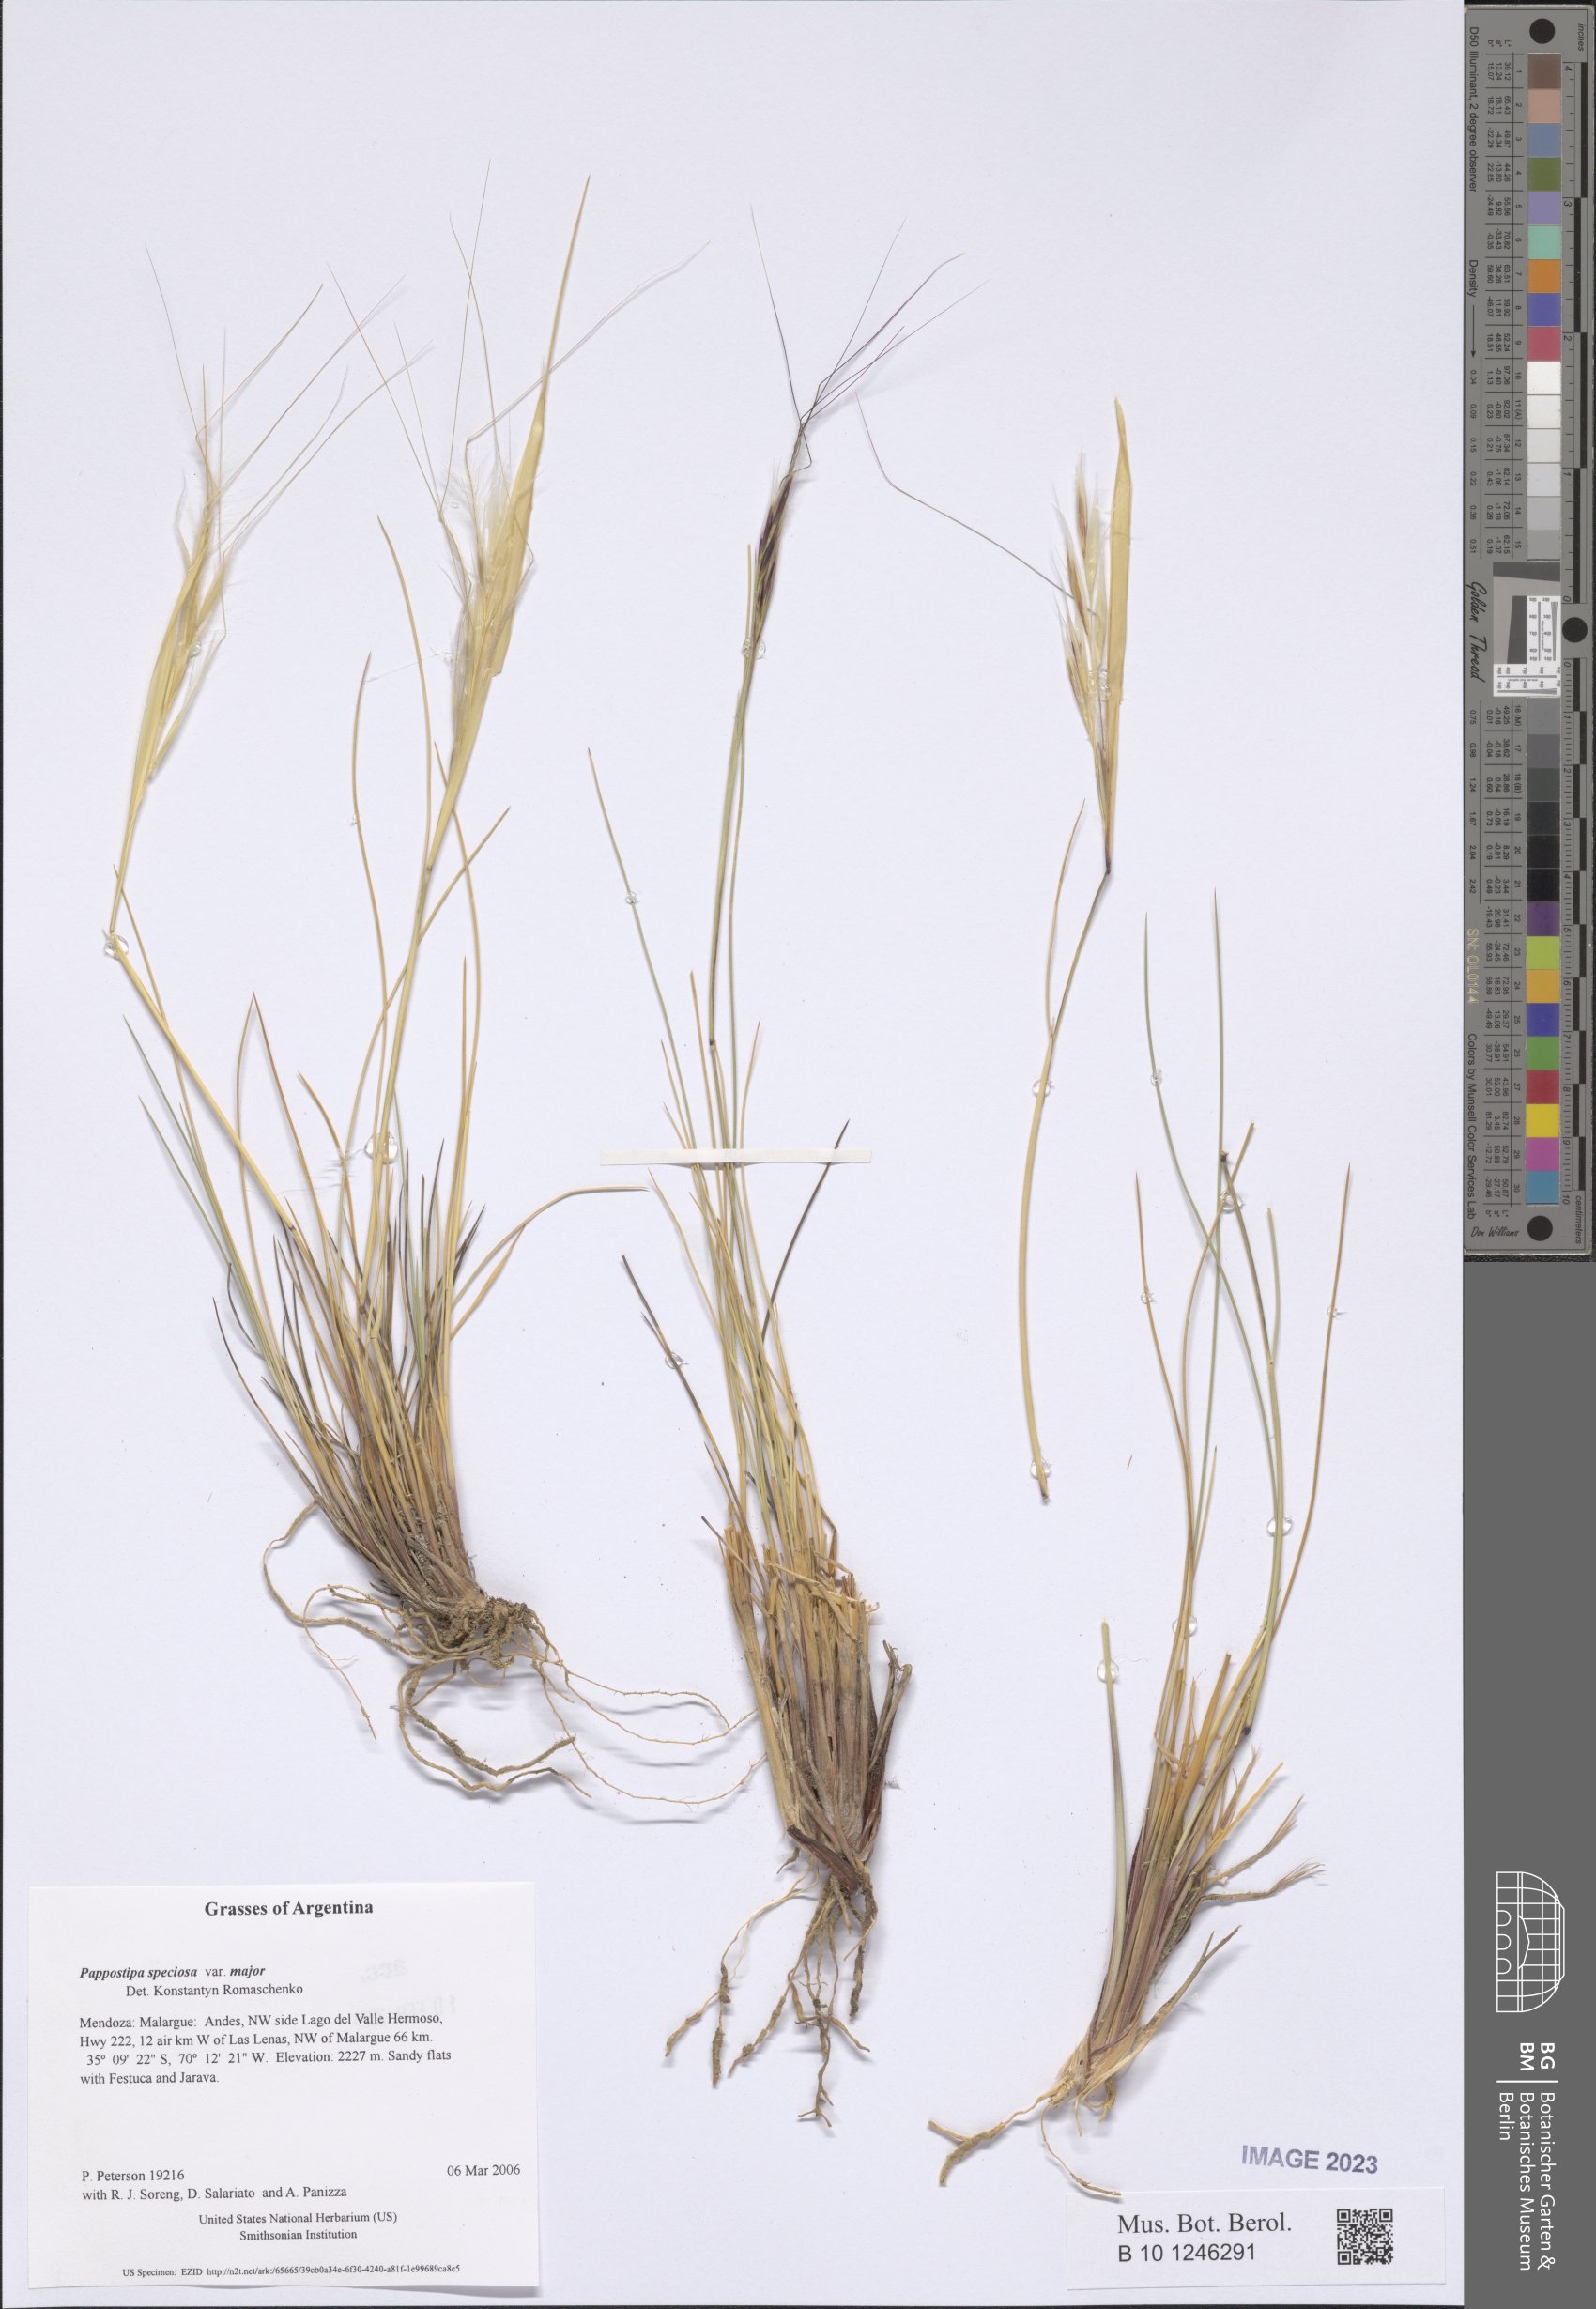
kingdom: Plantae
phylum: Tracheophyta
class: Liliopsida
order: Poales
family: Poaceae
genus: Pappostipa
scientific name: Pappostipa major
